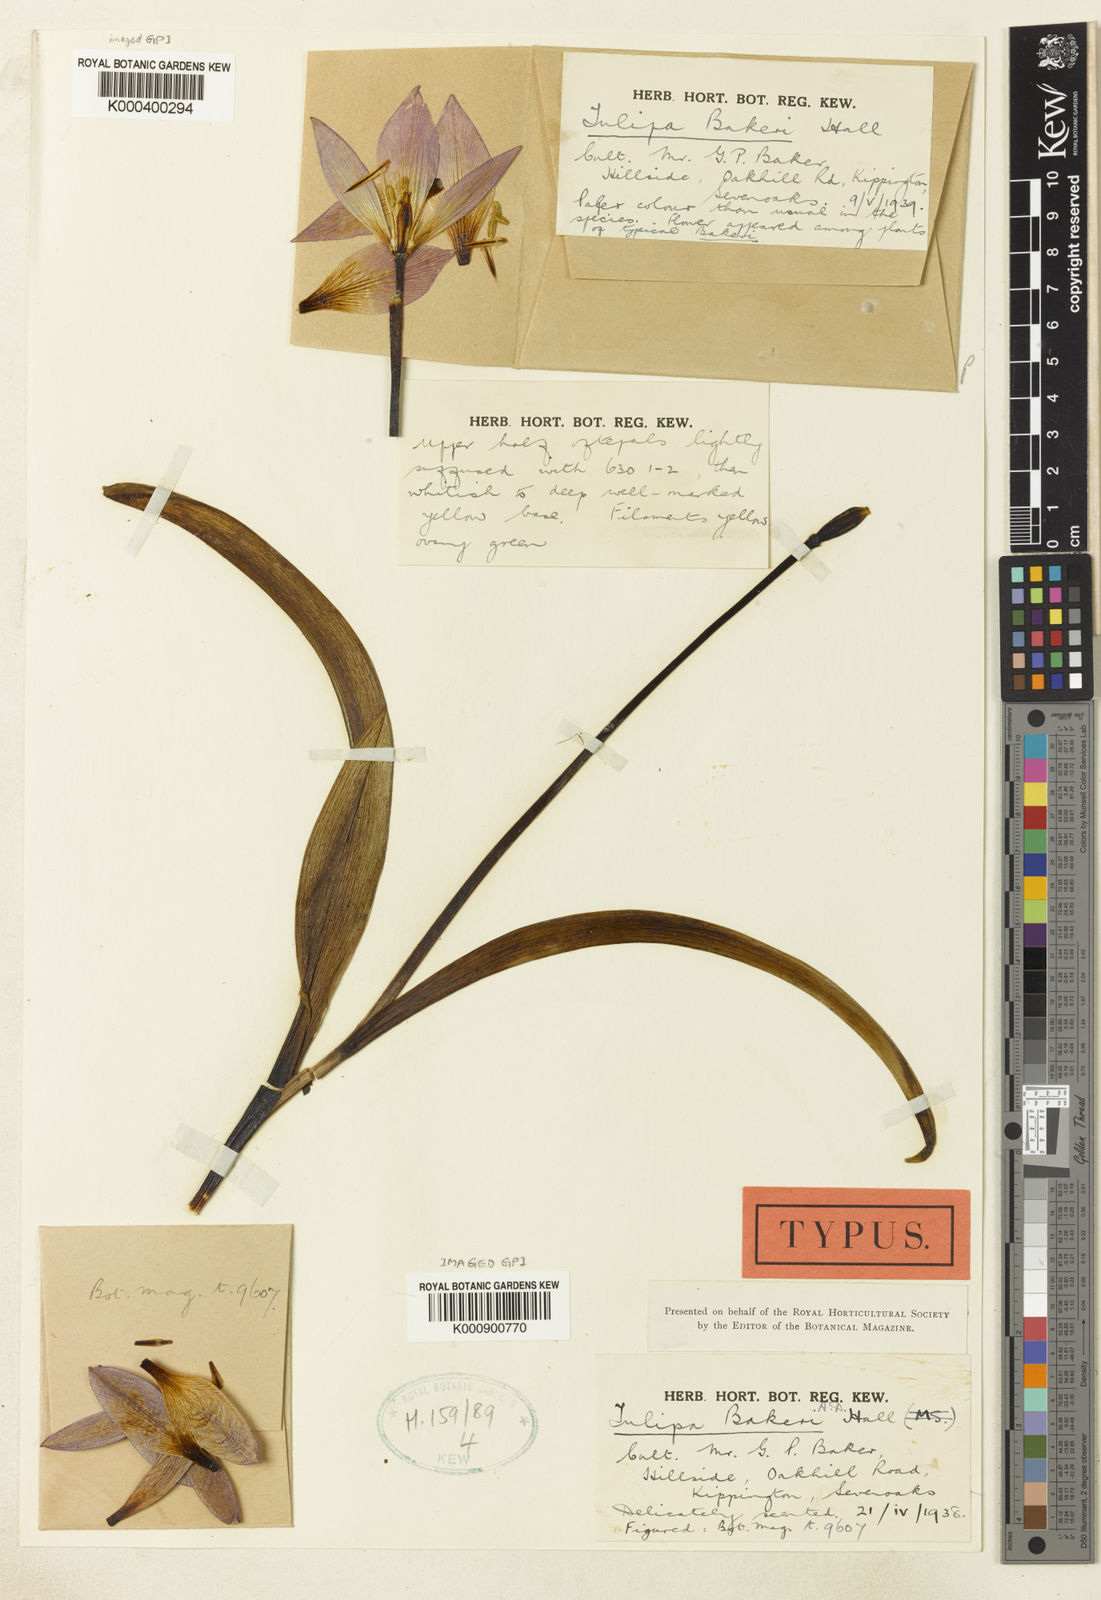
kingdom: Plantae
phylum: Tracheophyta
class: Liliopsida
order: Liliales
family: Liliaceae
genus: Tulipa
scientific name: Tulipa saxatilis
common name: Cretan tulip
